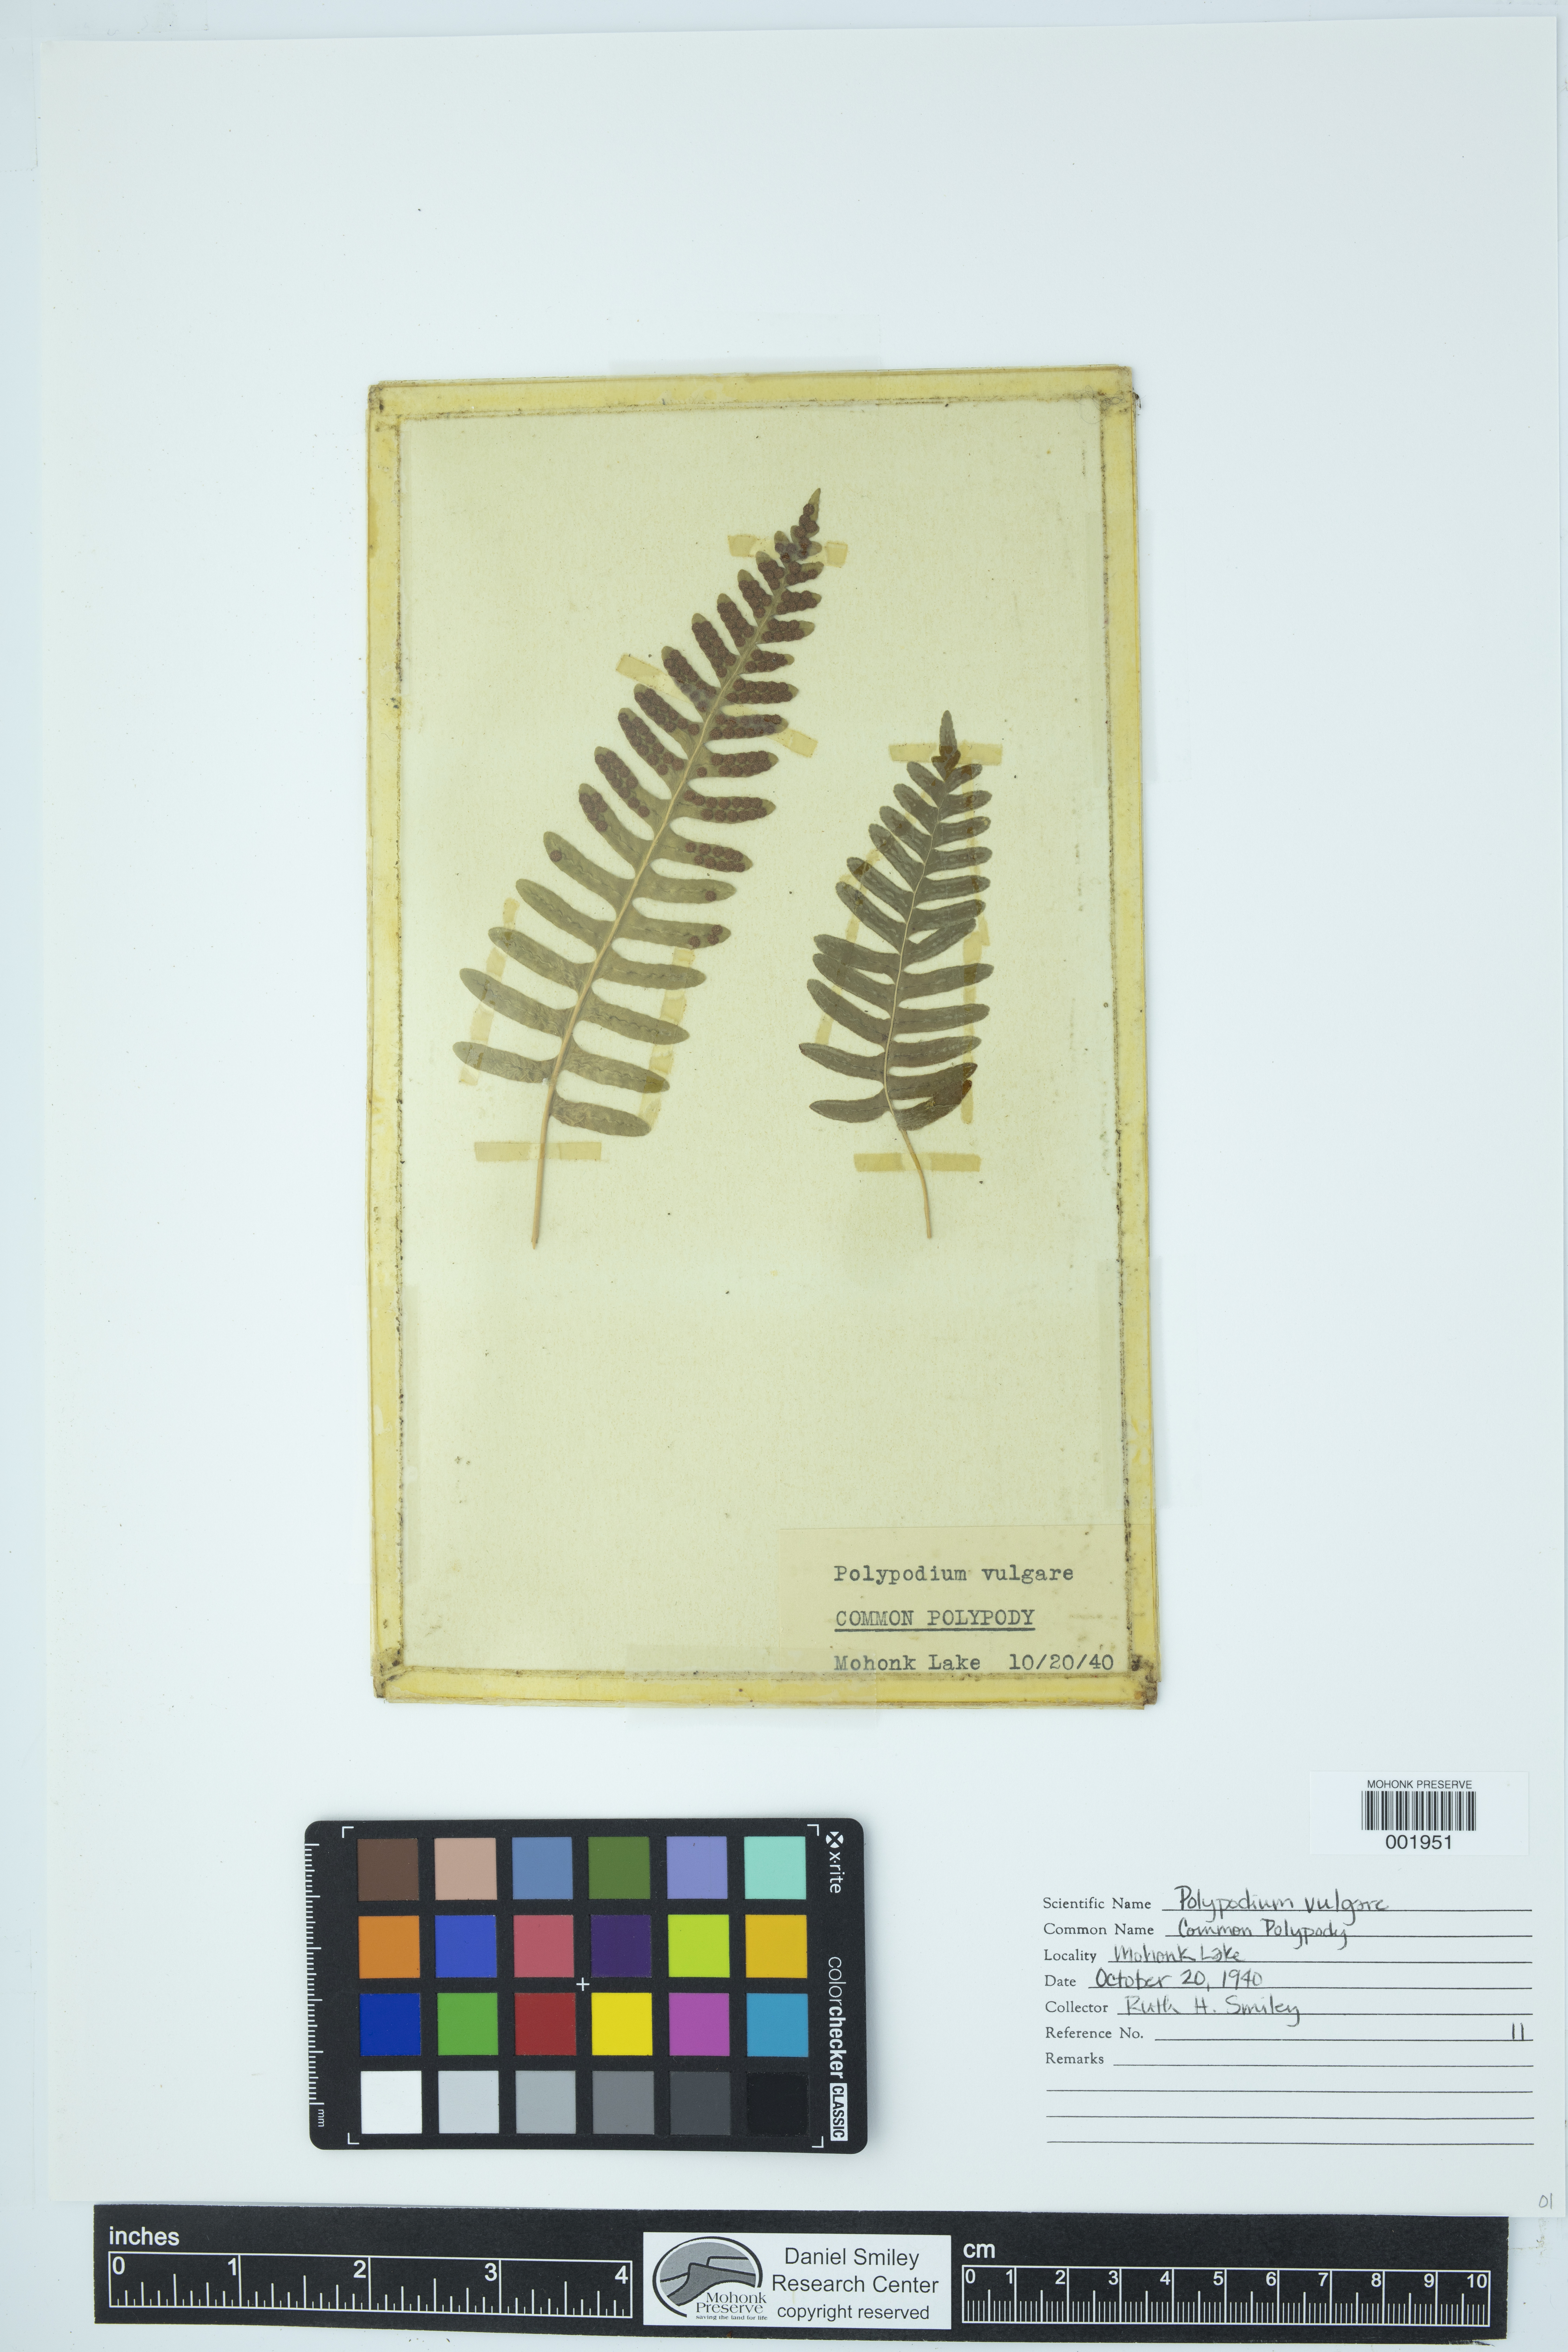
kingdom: Plantae
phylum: Tracheophyta
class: Polypodiopsida
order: Polypodiales
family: Polypodiaceae
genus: Polypodium
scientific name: Polypodium virginianum
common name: American wall fern
